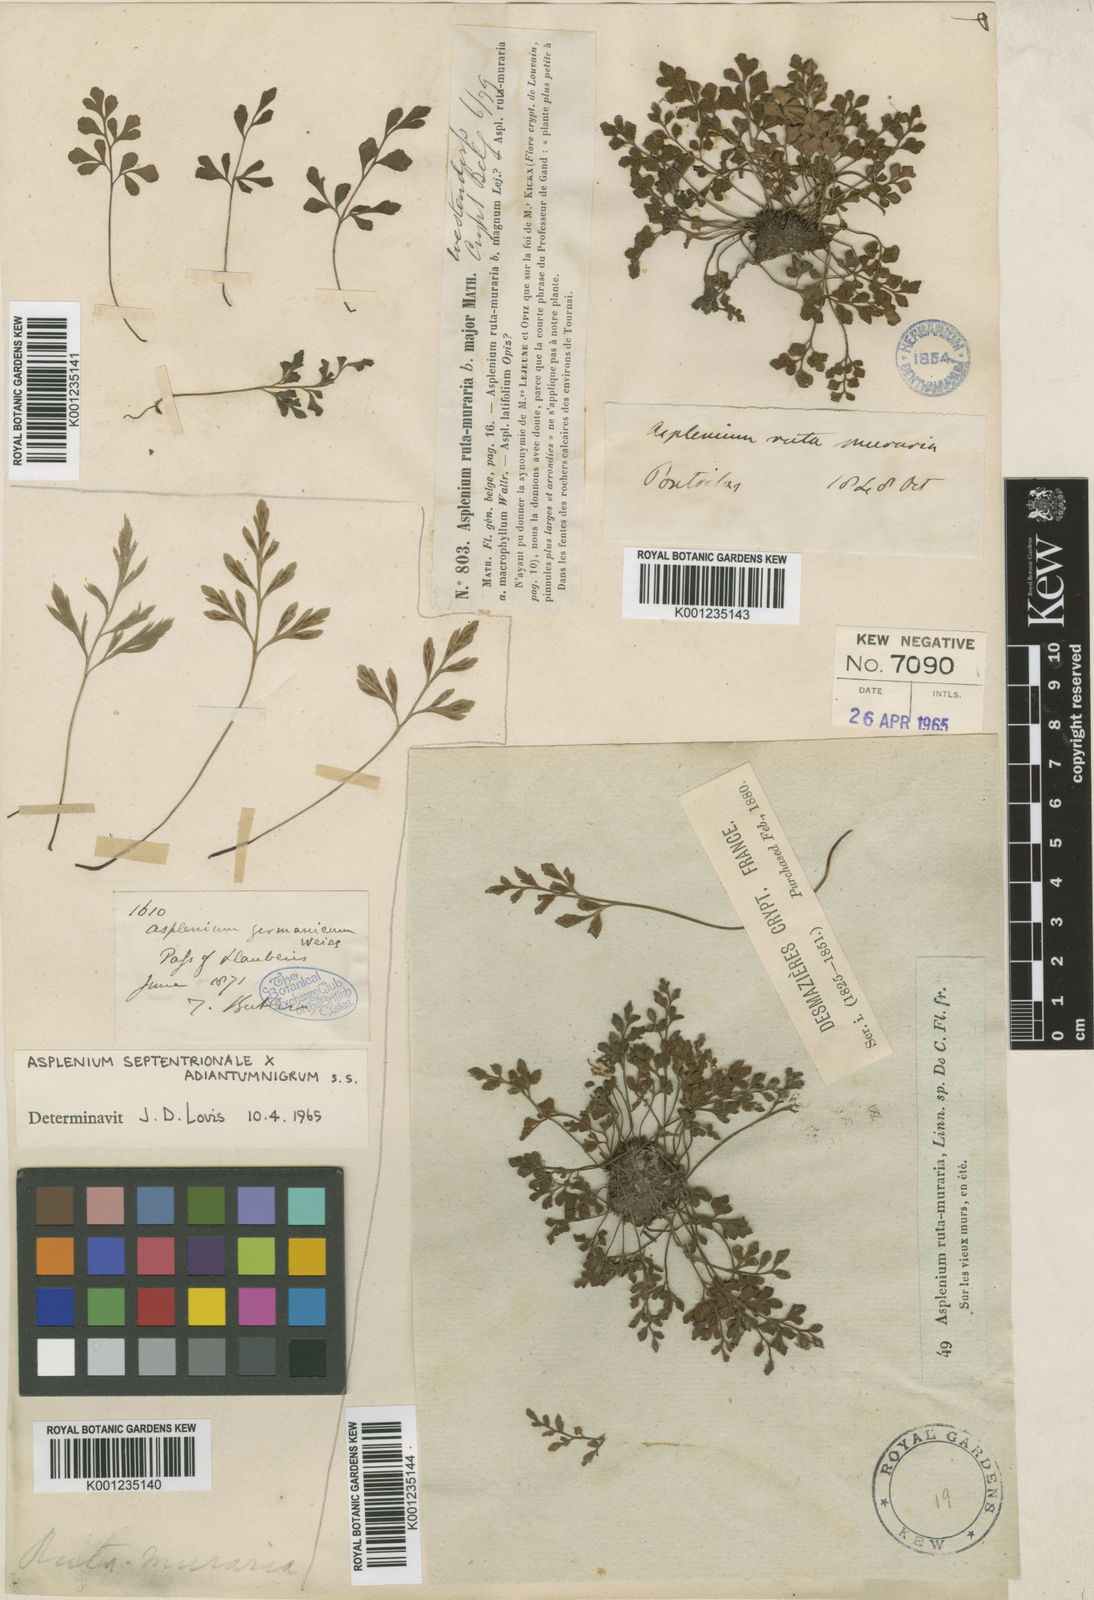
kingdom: Plantae
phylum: Tracheophyta
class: Polypodiopsida
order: Polypodiales
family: Aspleniaceae
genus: Asplenium
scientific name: Asplenium
